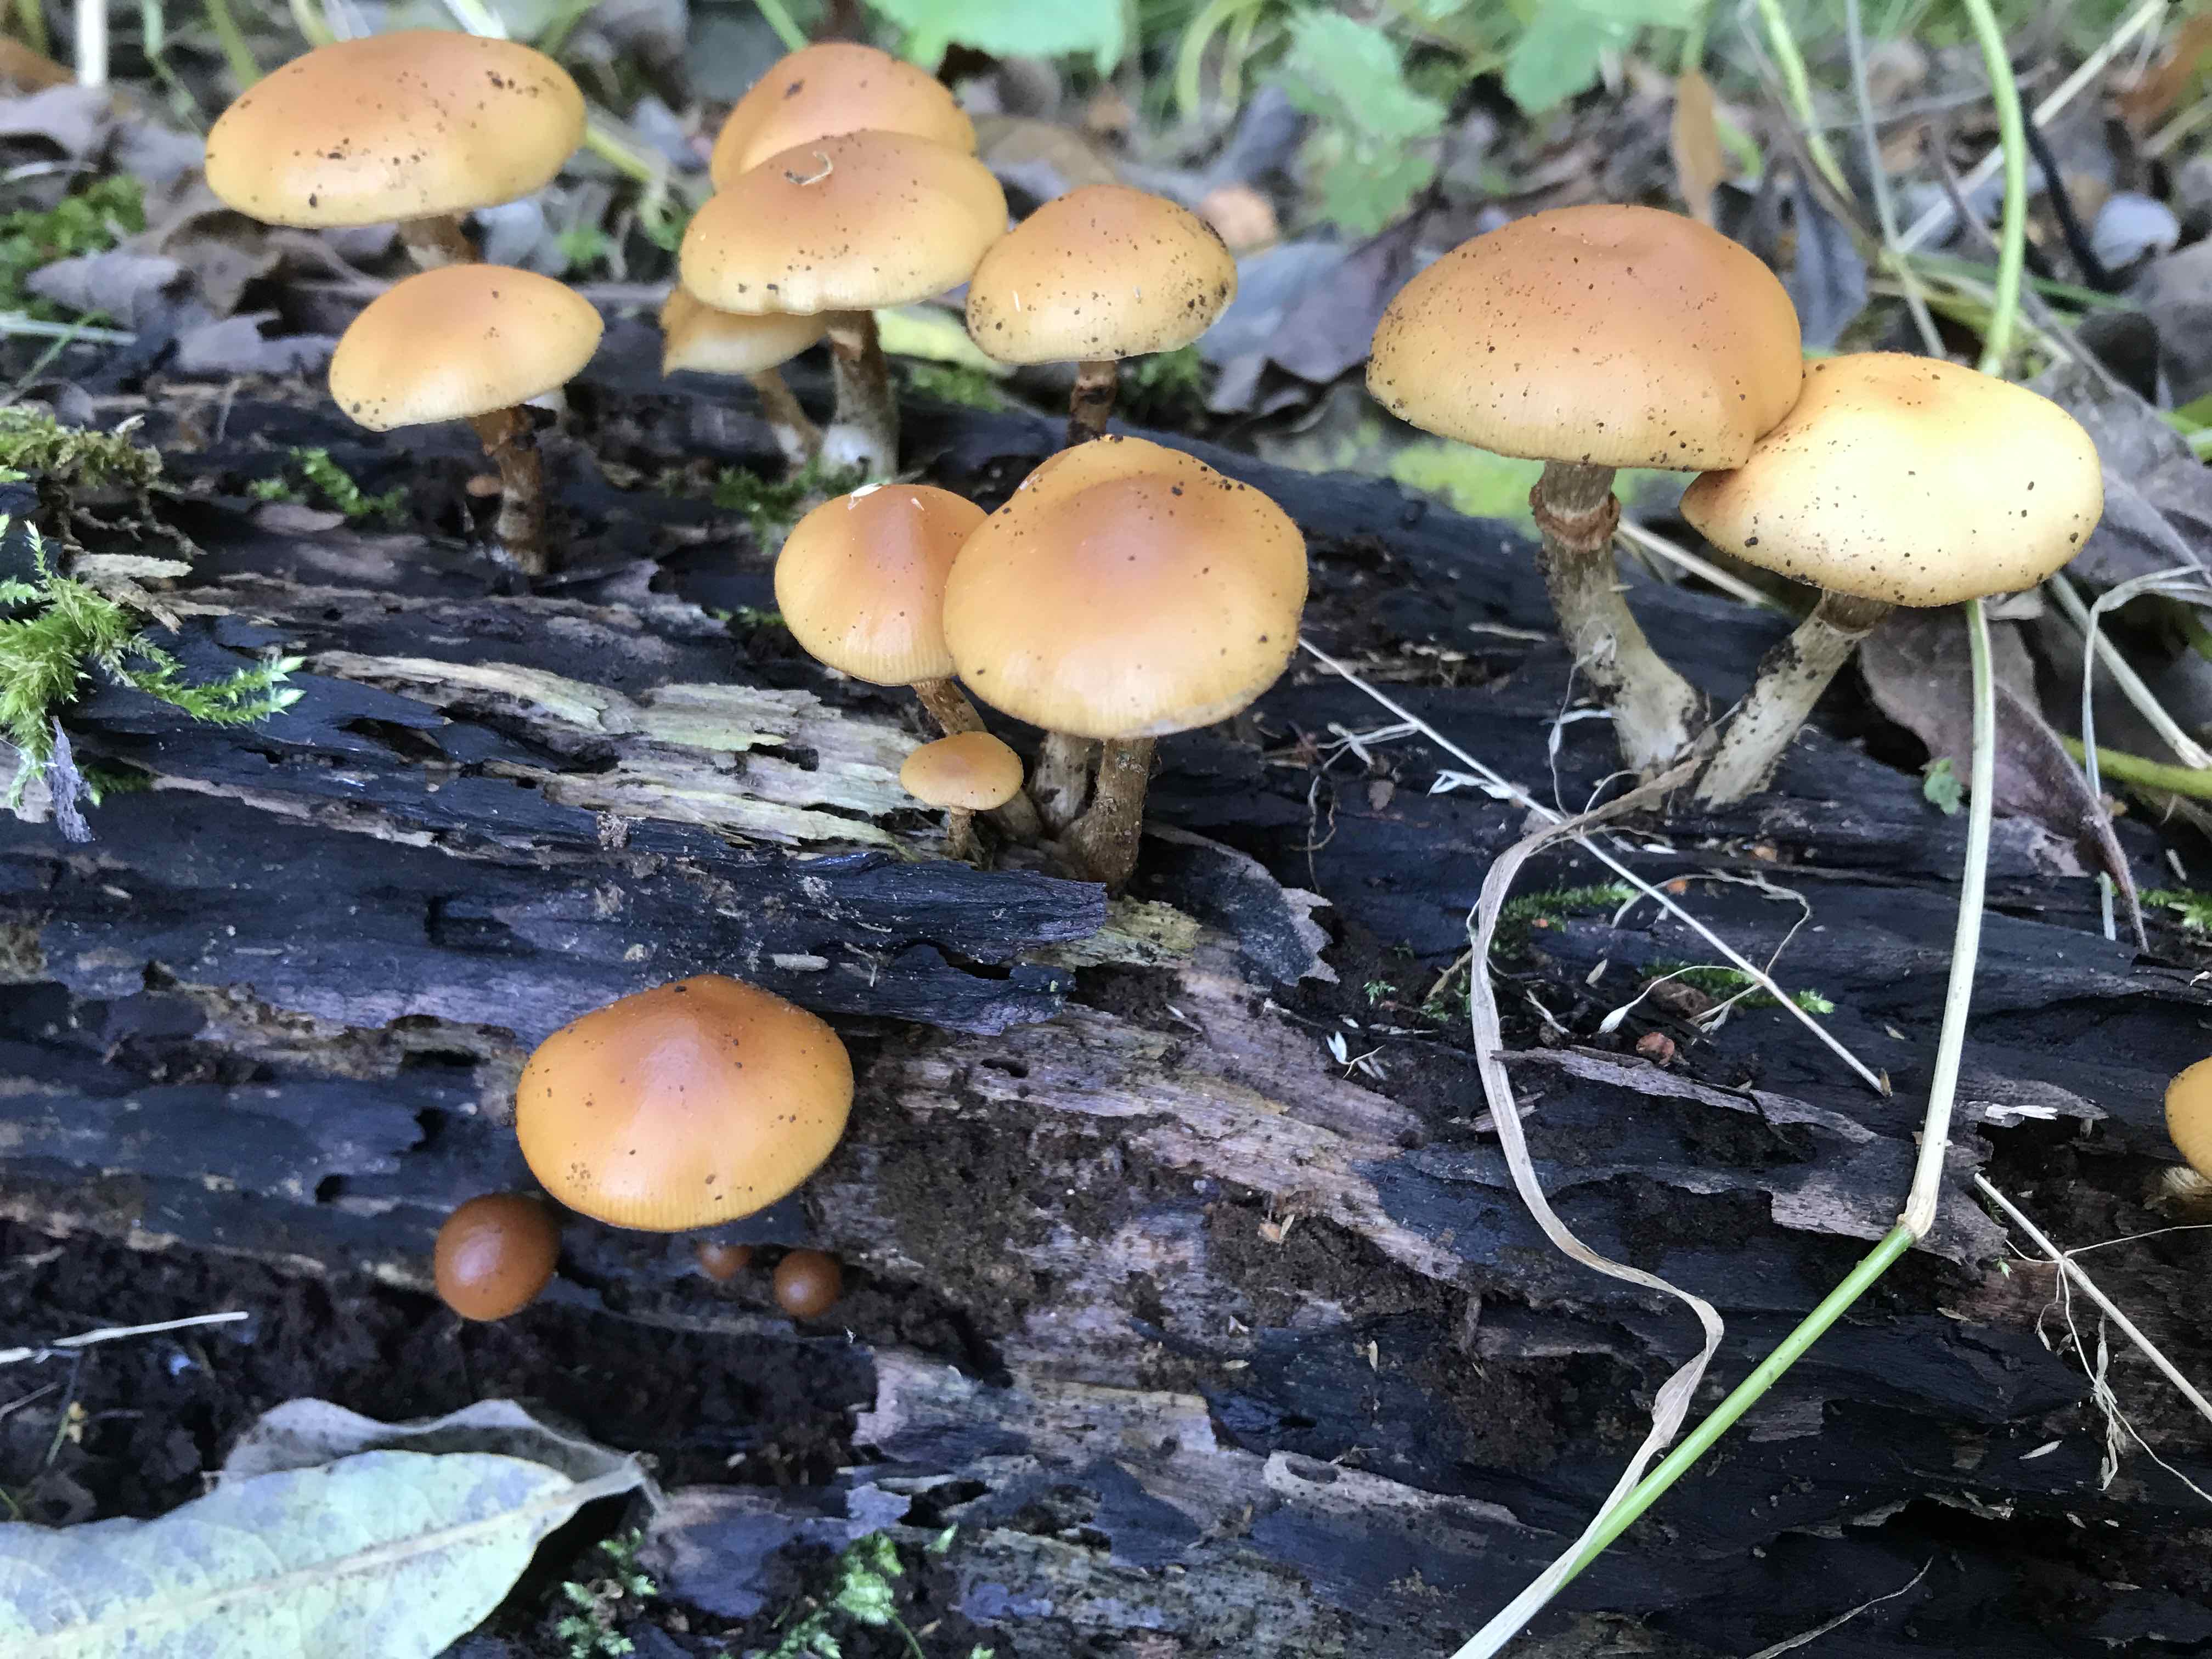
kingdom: Fungi
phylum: Basidiomycota
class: Agaricomycetes
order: Agaricales
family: Hymenogastraceae
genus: Galerina
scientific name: Galerina marginata
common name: randbæltet hjelmhat
